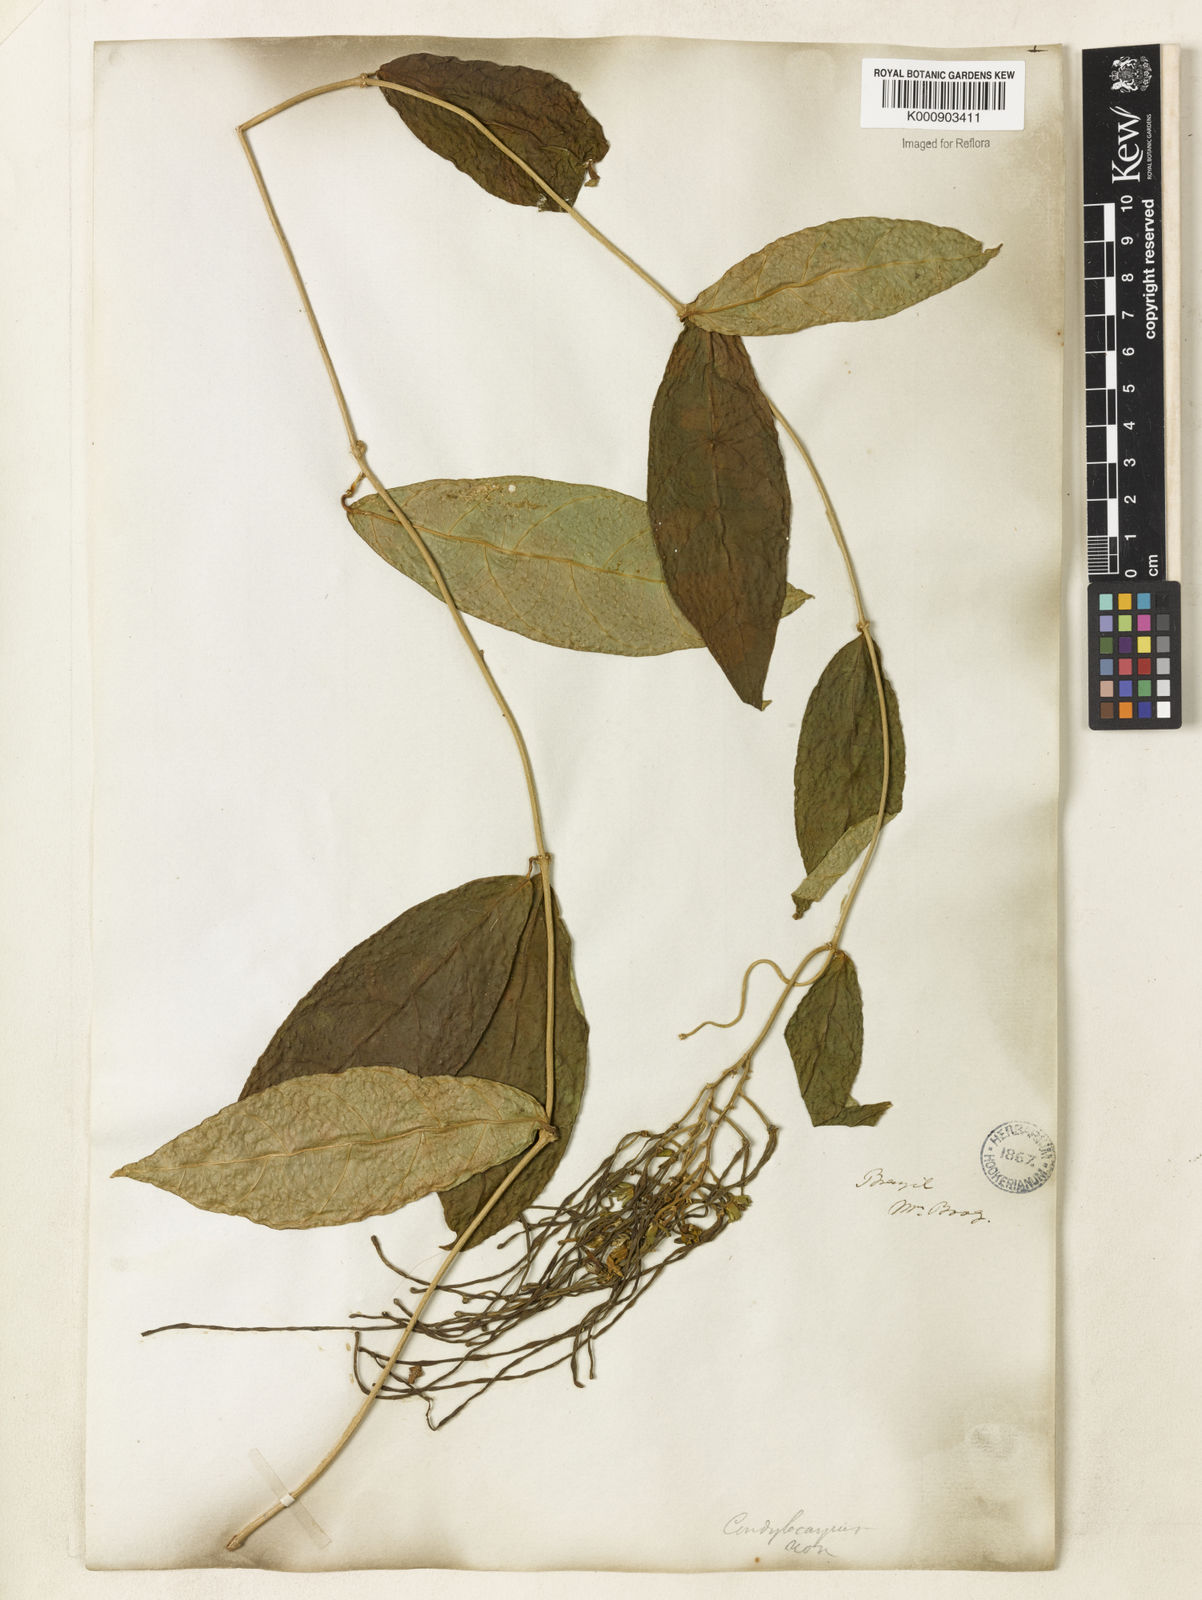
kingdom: Plantae
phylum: Tracheophyta
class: Magnoliopsida
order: Gentianales
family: Apocynaceae
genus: Prestonia
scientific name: Prestonia denticulata
